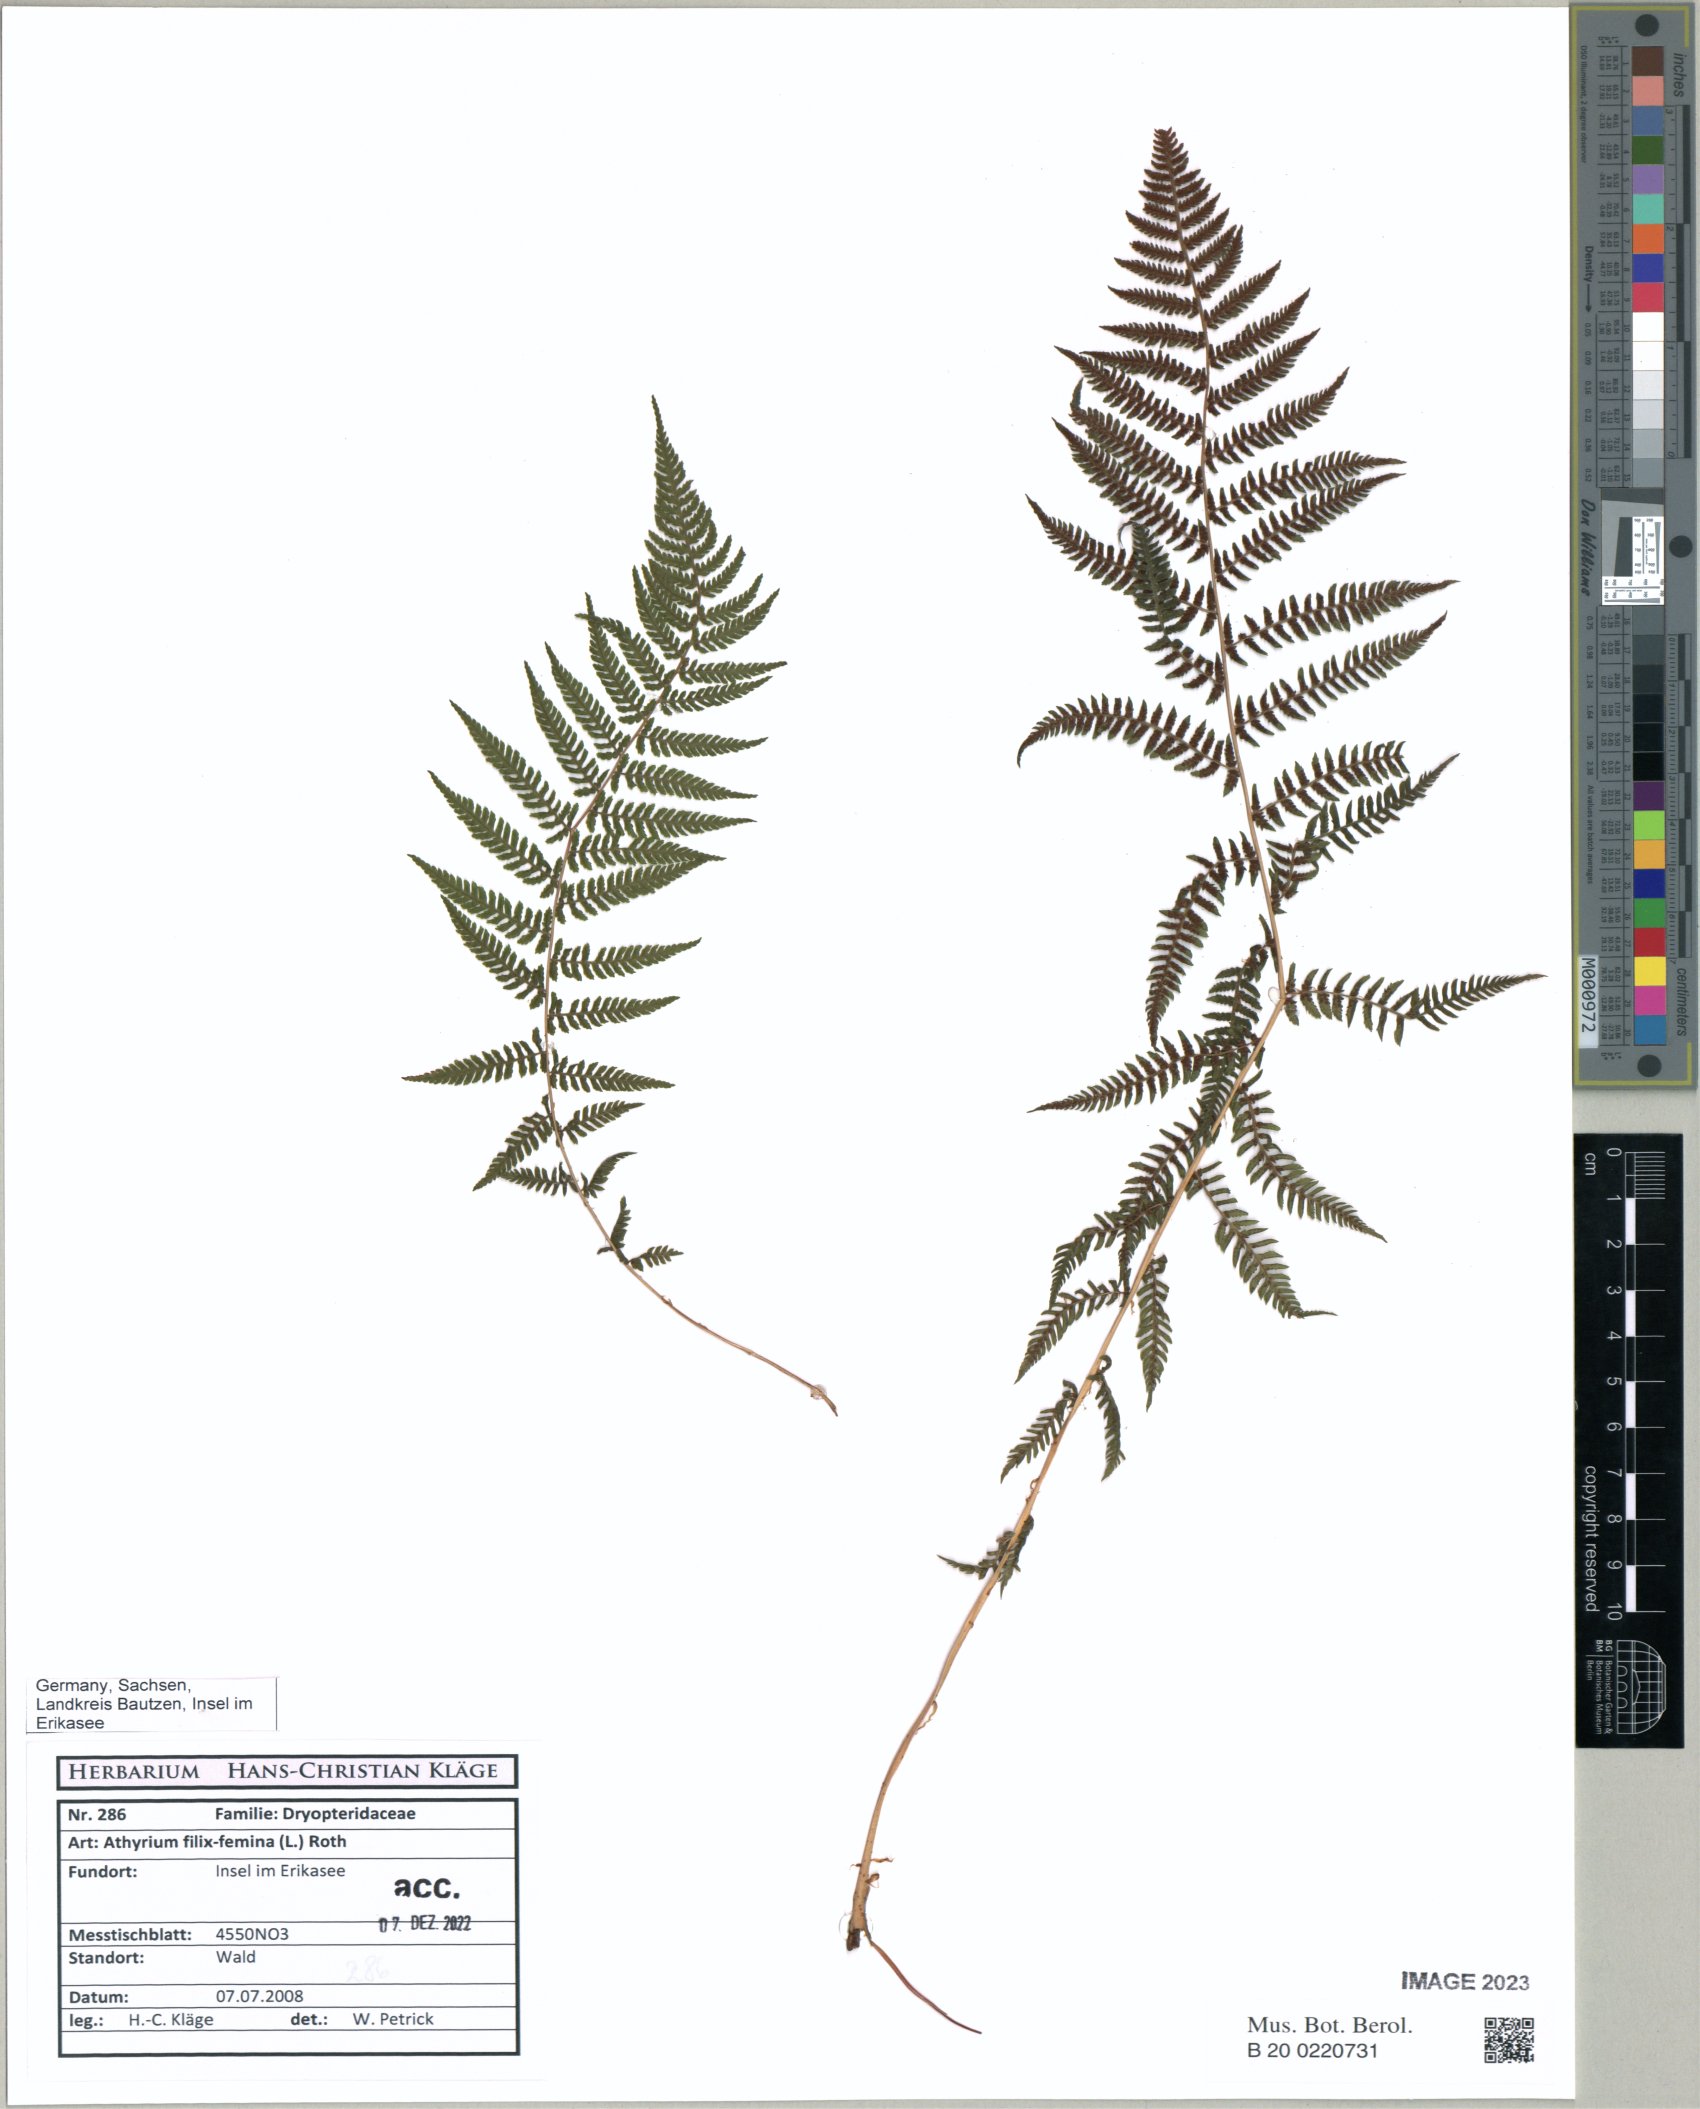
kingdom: Plantae
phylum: Tracheophyta
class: Polypodiopsida
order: Polypodiales
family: Athyriaceae
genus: Athyrium
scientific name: Athyrium filix-femina
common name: Lady fern
